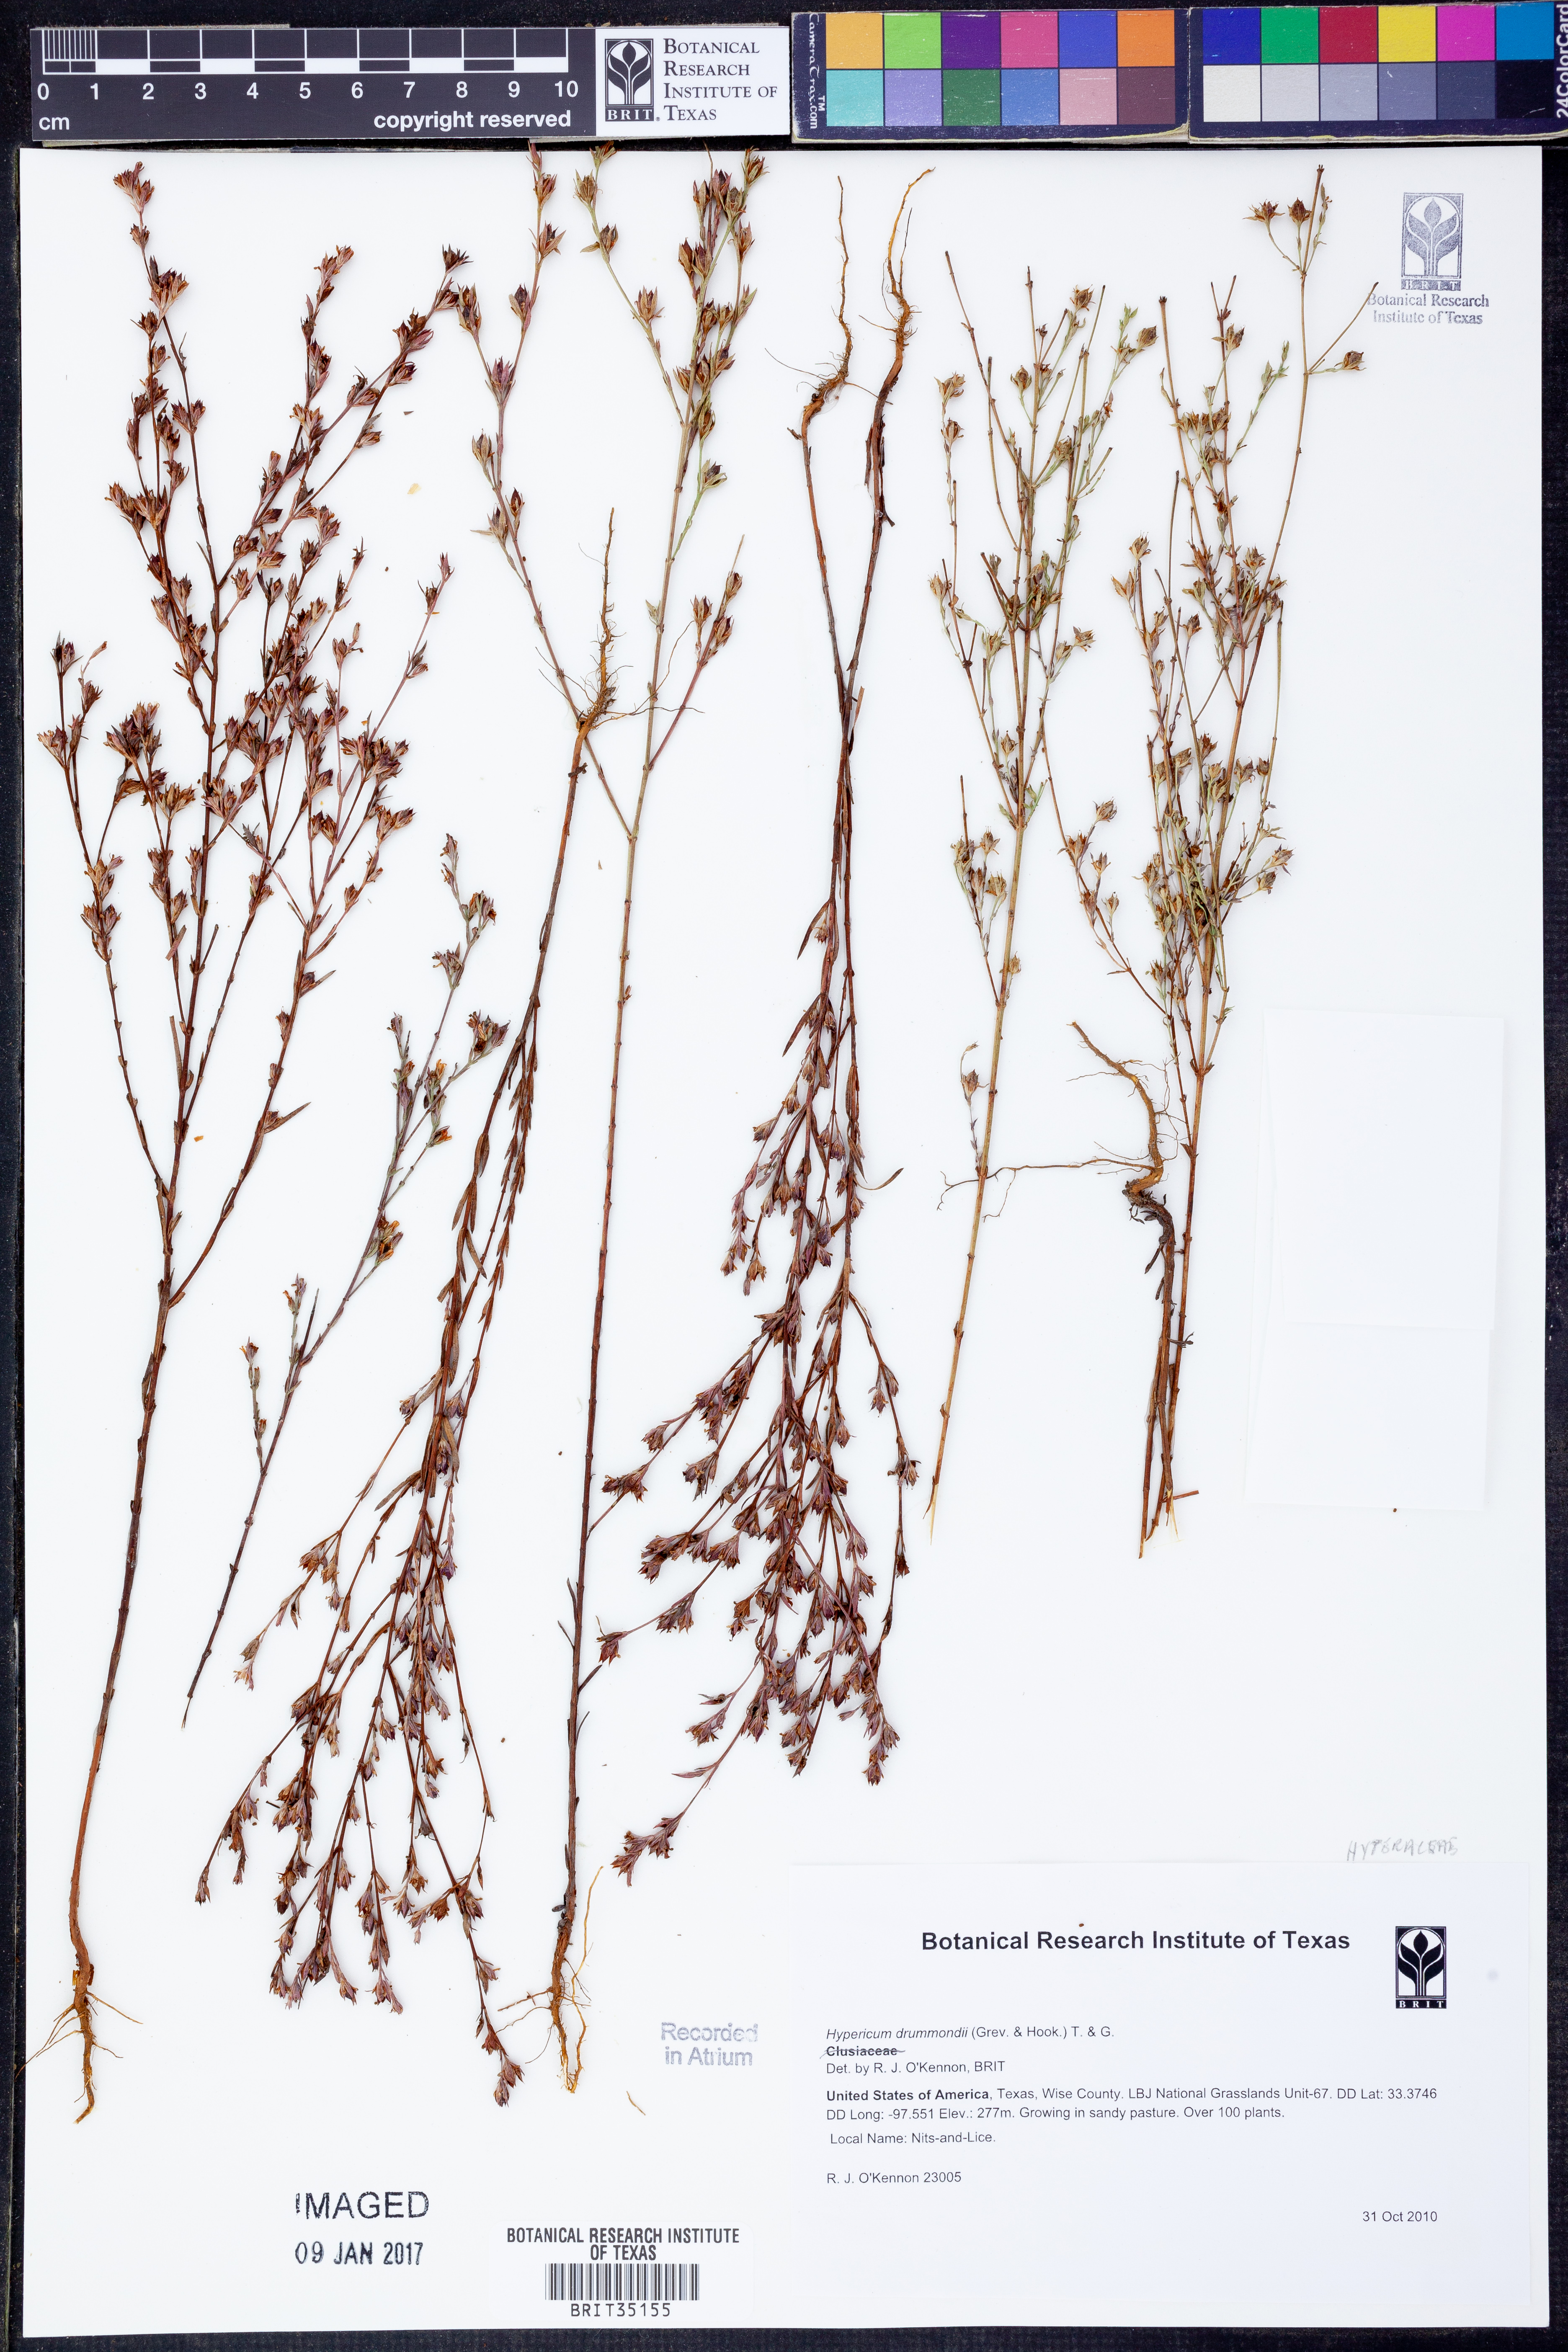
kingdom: Plantae
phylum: Tracheophyta
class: Magnoliopsida
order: Malpighiales
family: Hypericaceae
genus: Hypericum
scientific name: Hypericum drummondii
